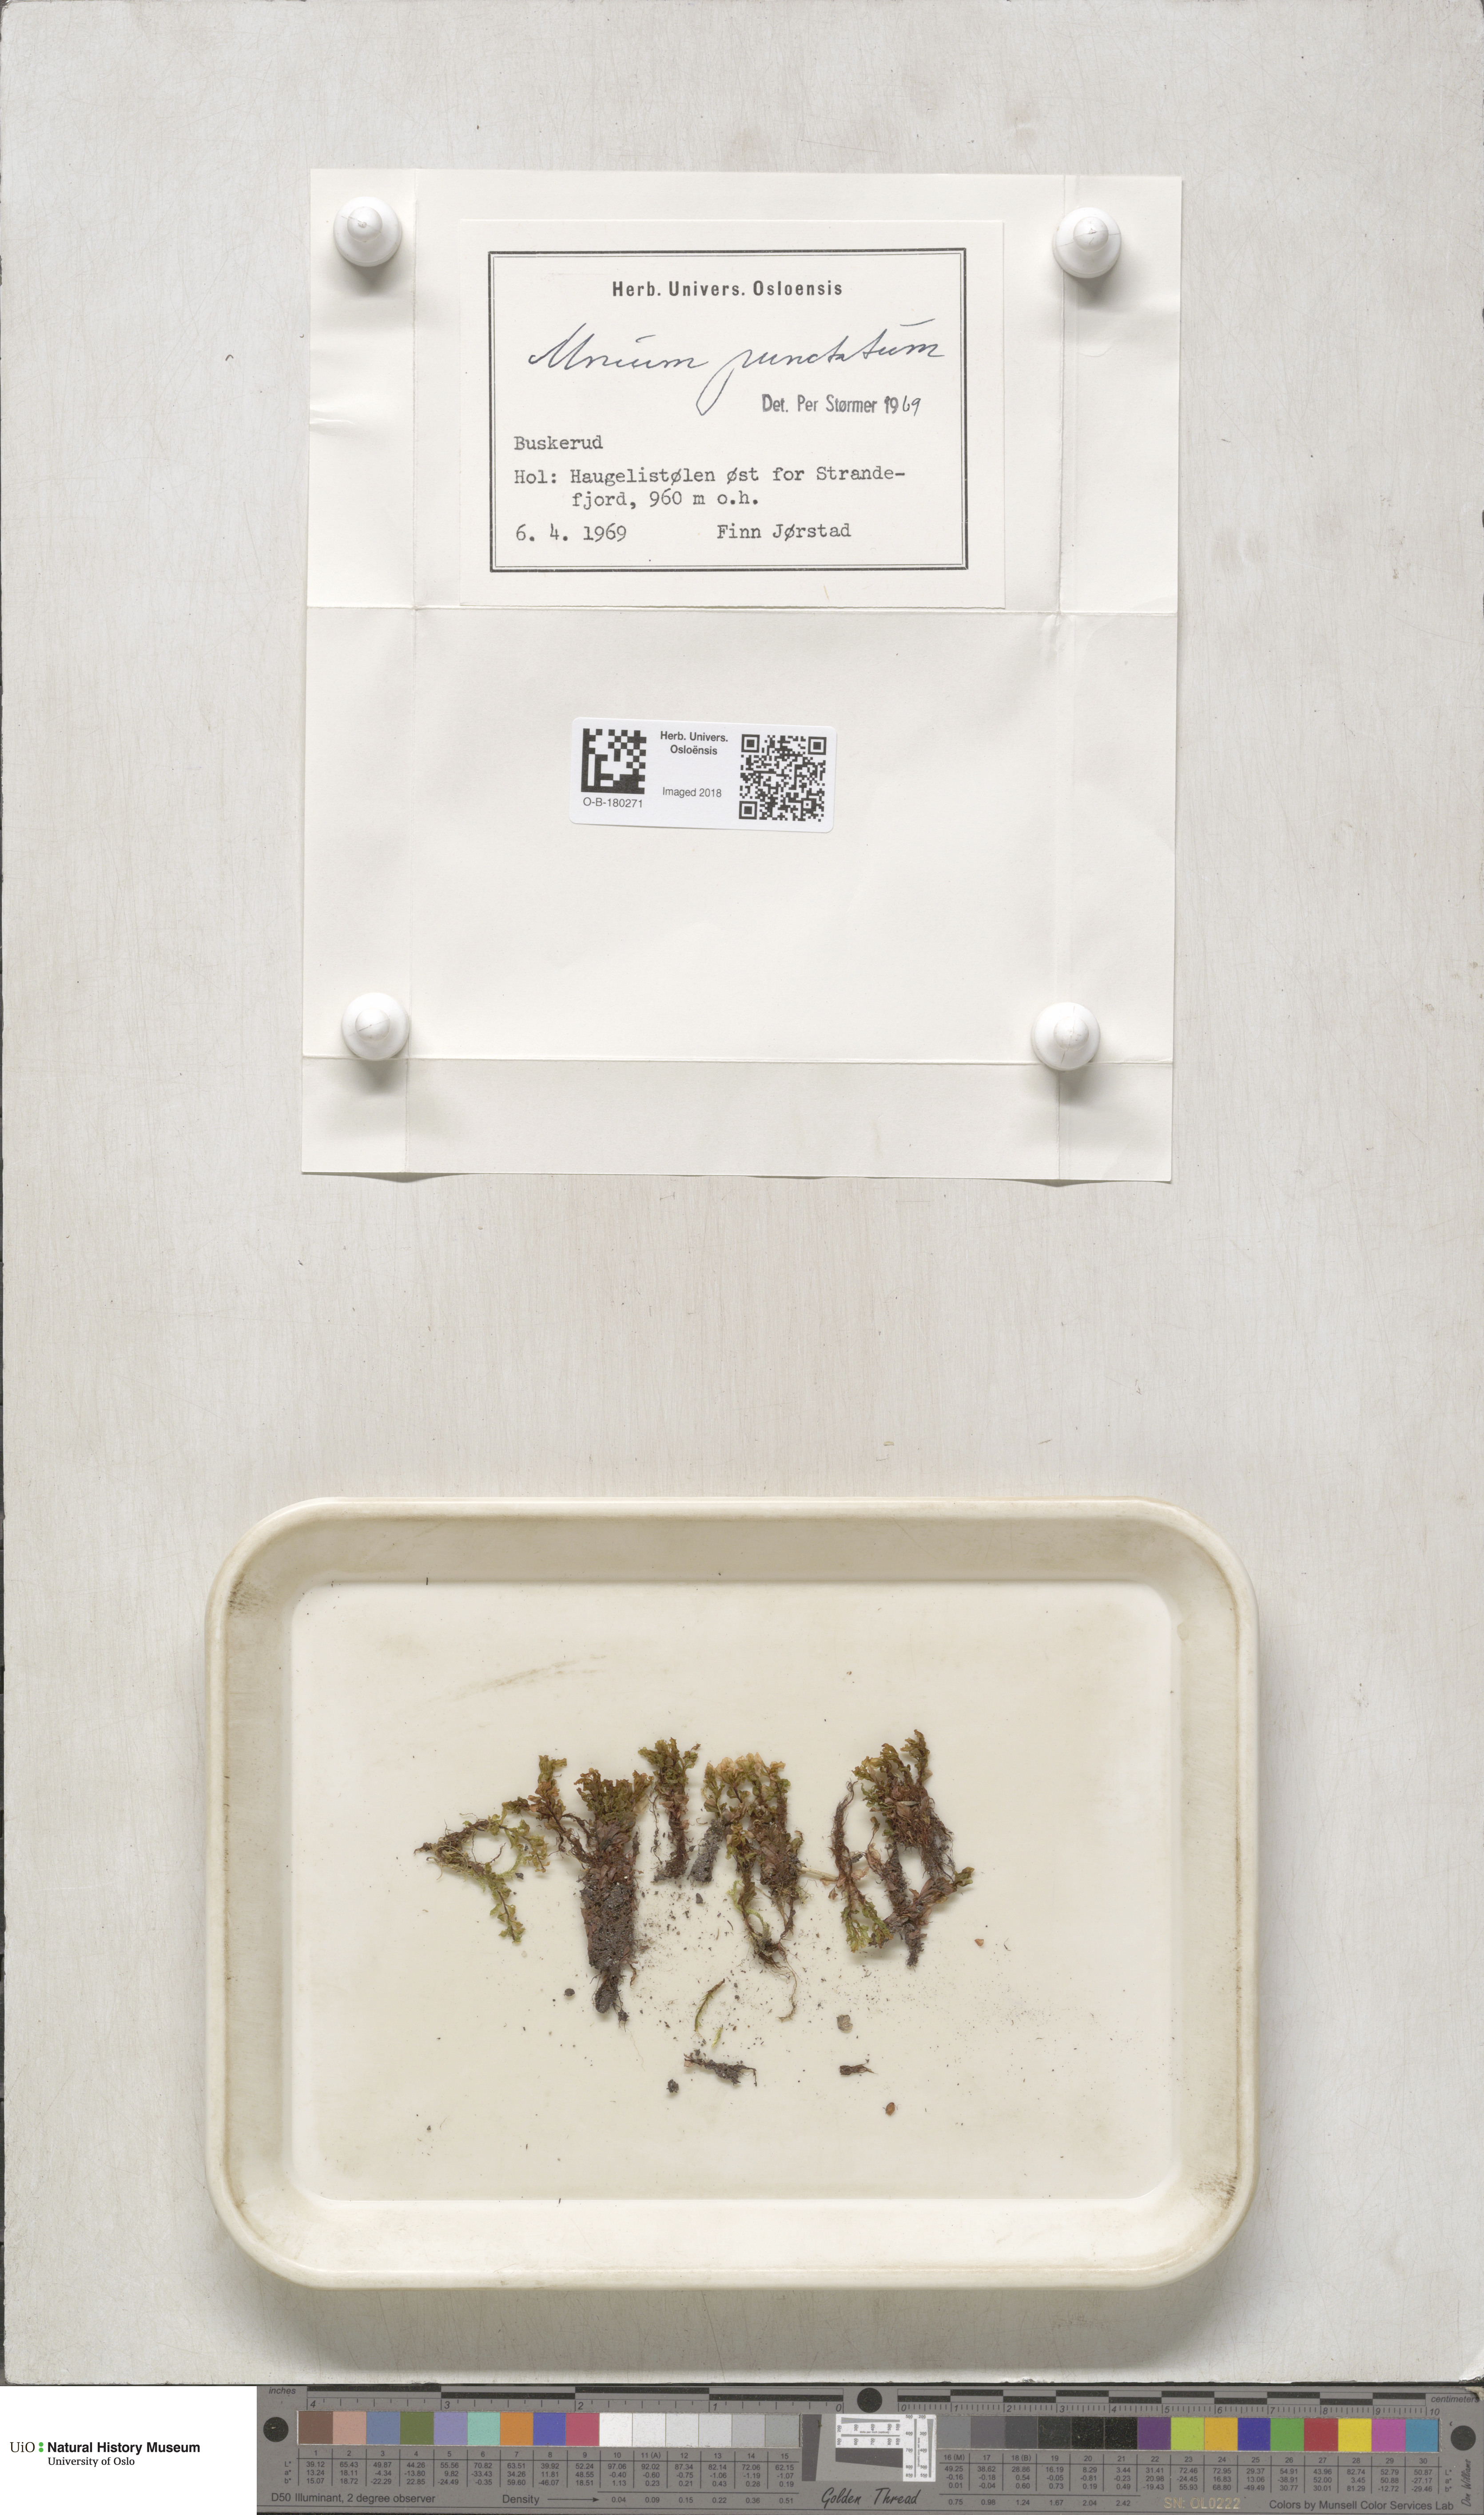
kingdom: Plantae
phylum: Bryophyta
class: Bryopsida
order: Bryales
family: Mniaceae
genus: Rhizomnium
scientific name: Rhizomnium punctatum
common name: Dotted leafy moss
